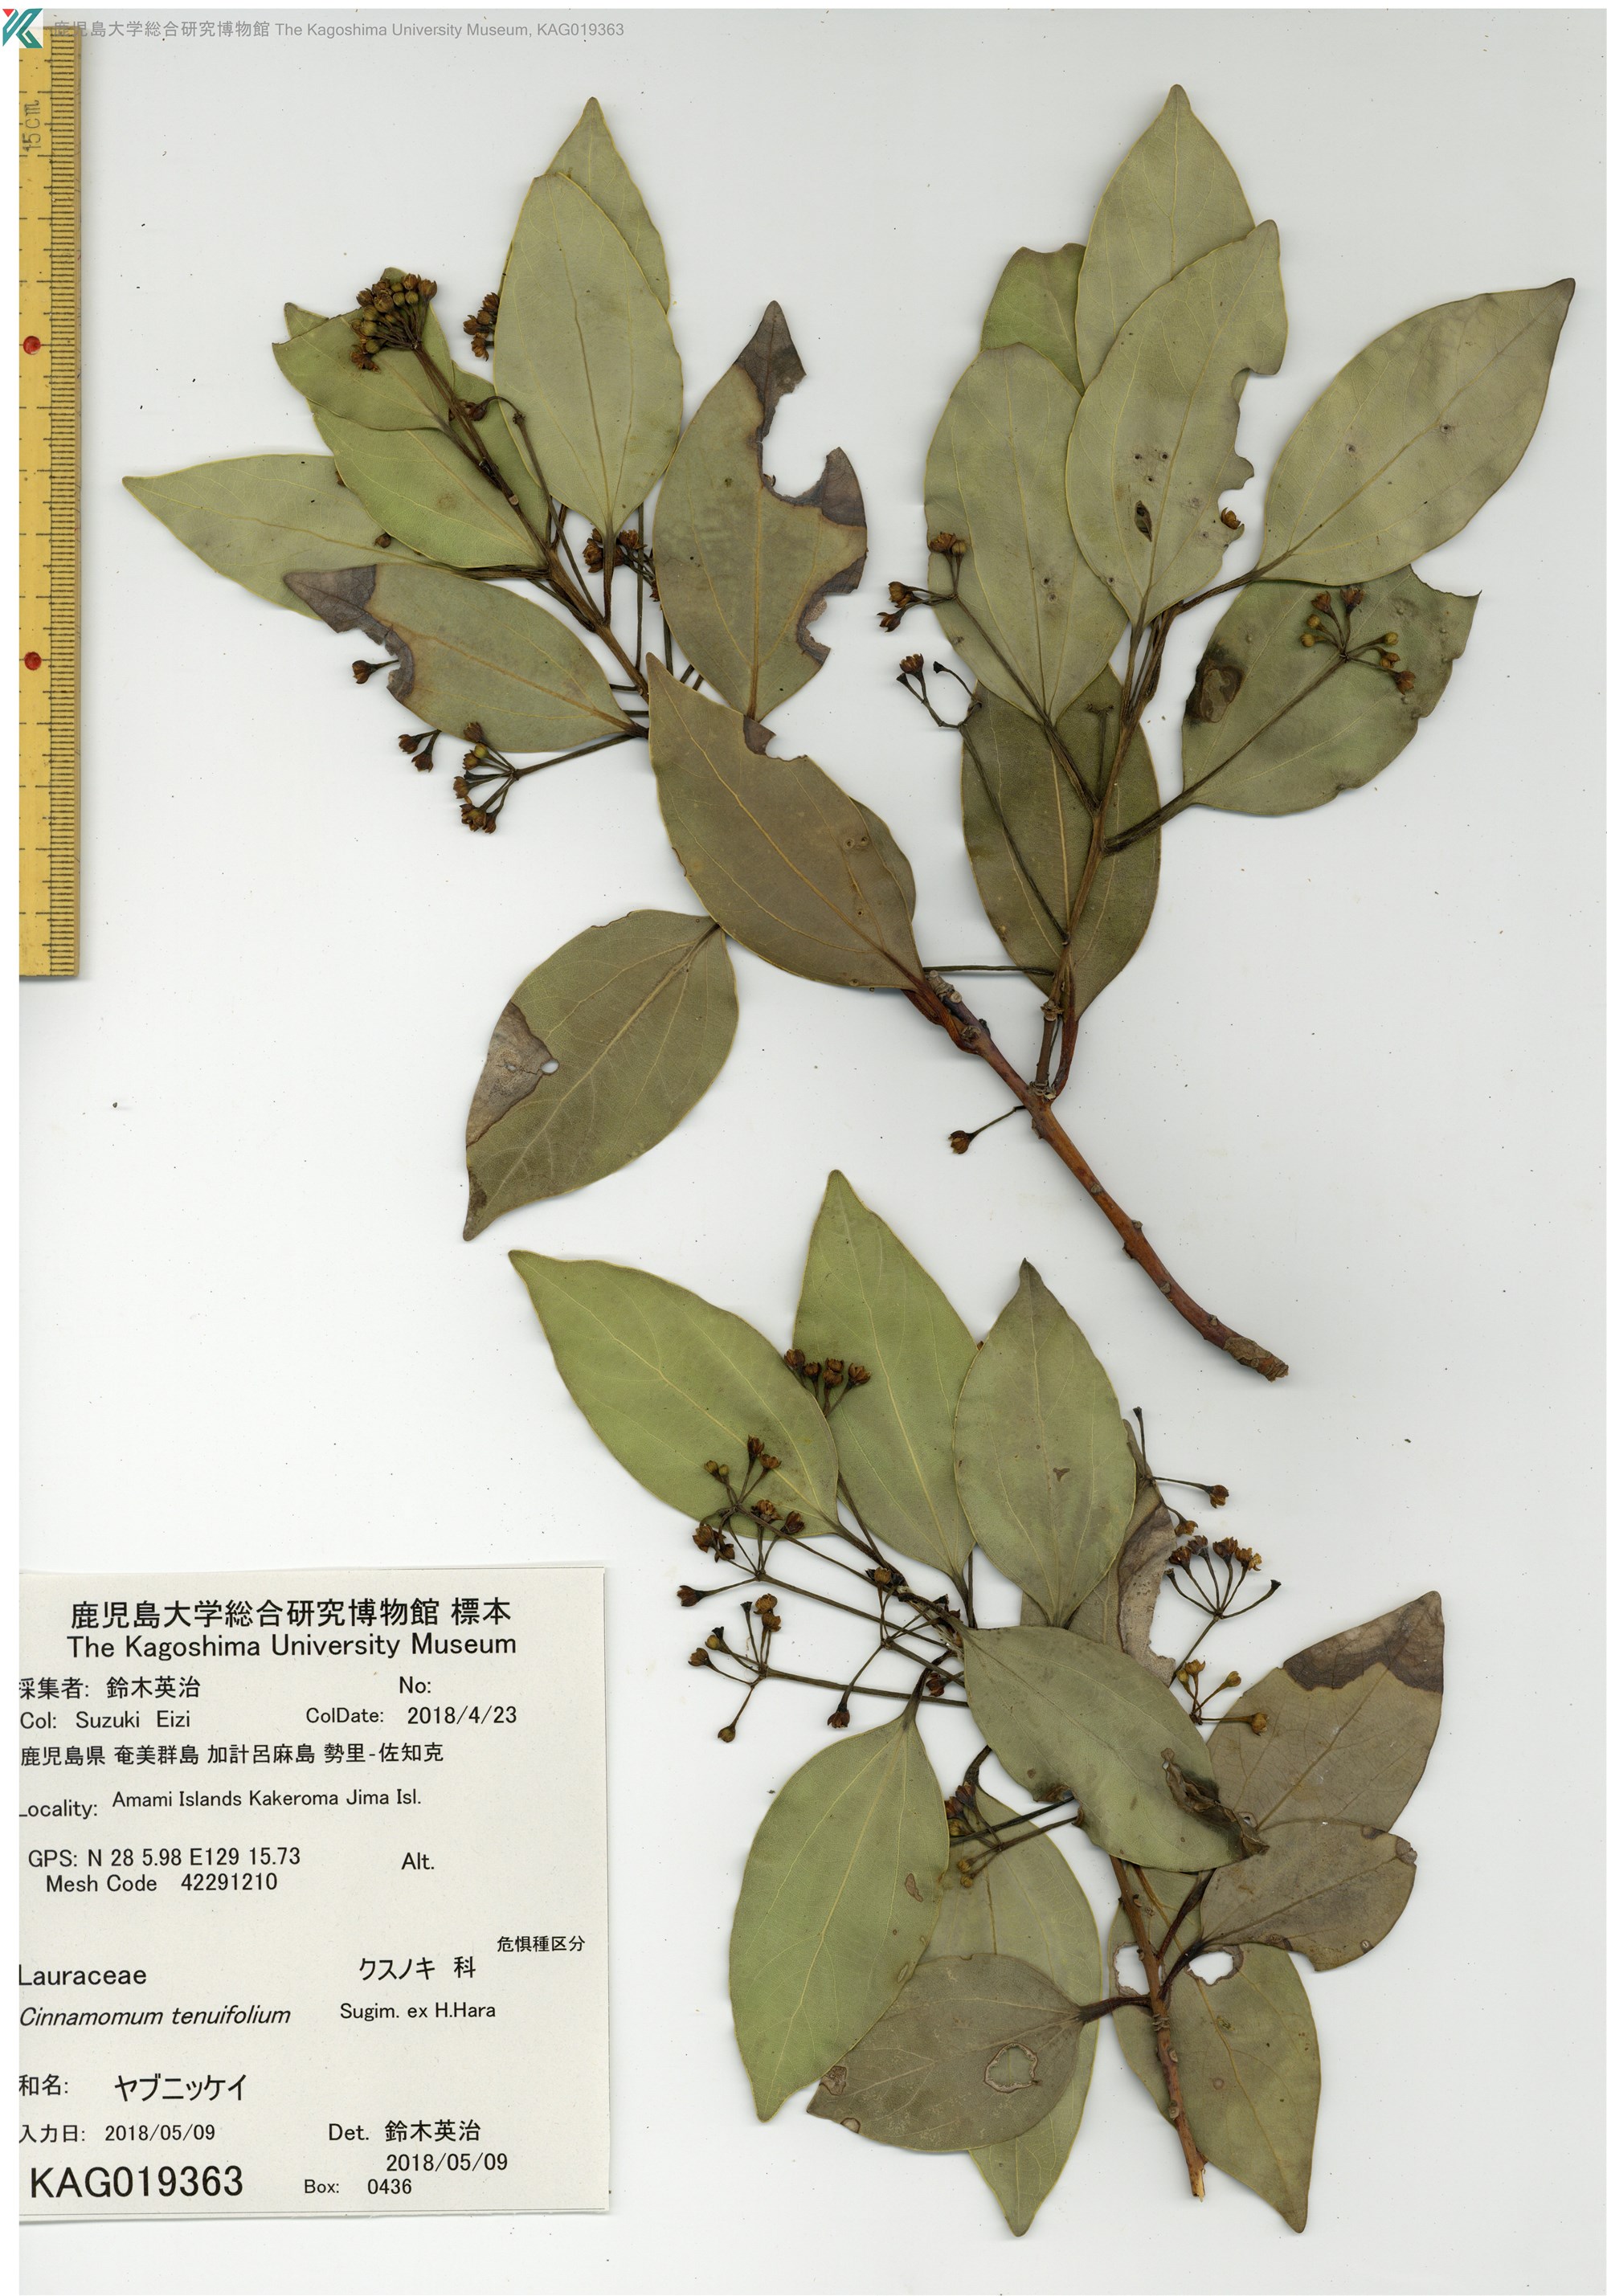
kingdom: Plantae
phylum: Tracheophyta
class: Magnoliopsida
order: Laurales
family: Lauraceae
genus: Cinnamomum
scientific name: Cinnamomum chekiangense
